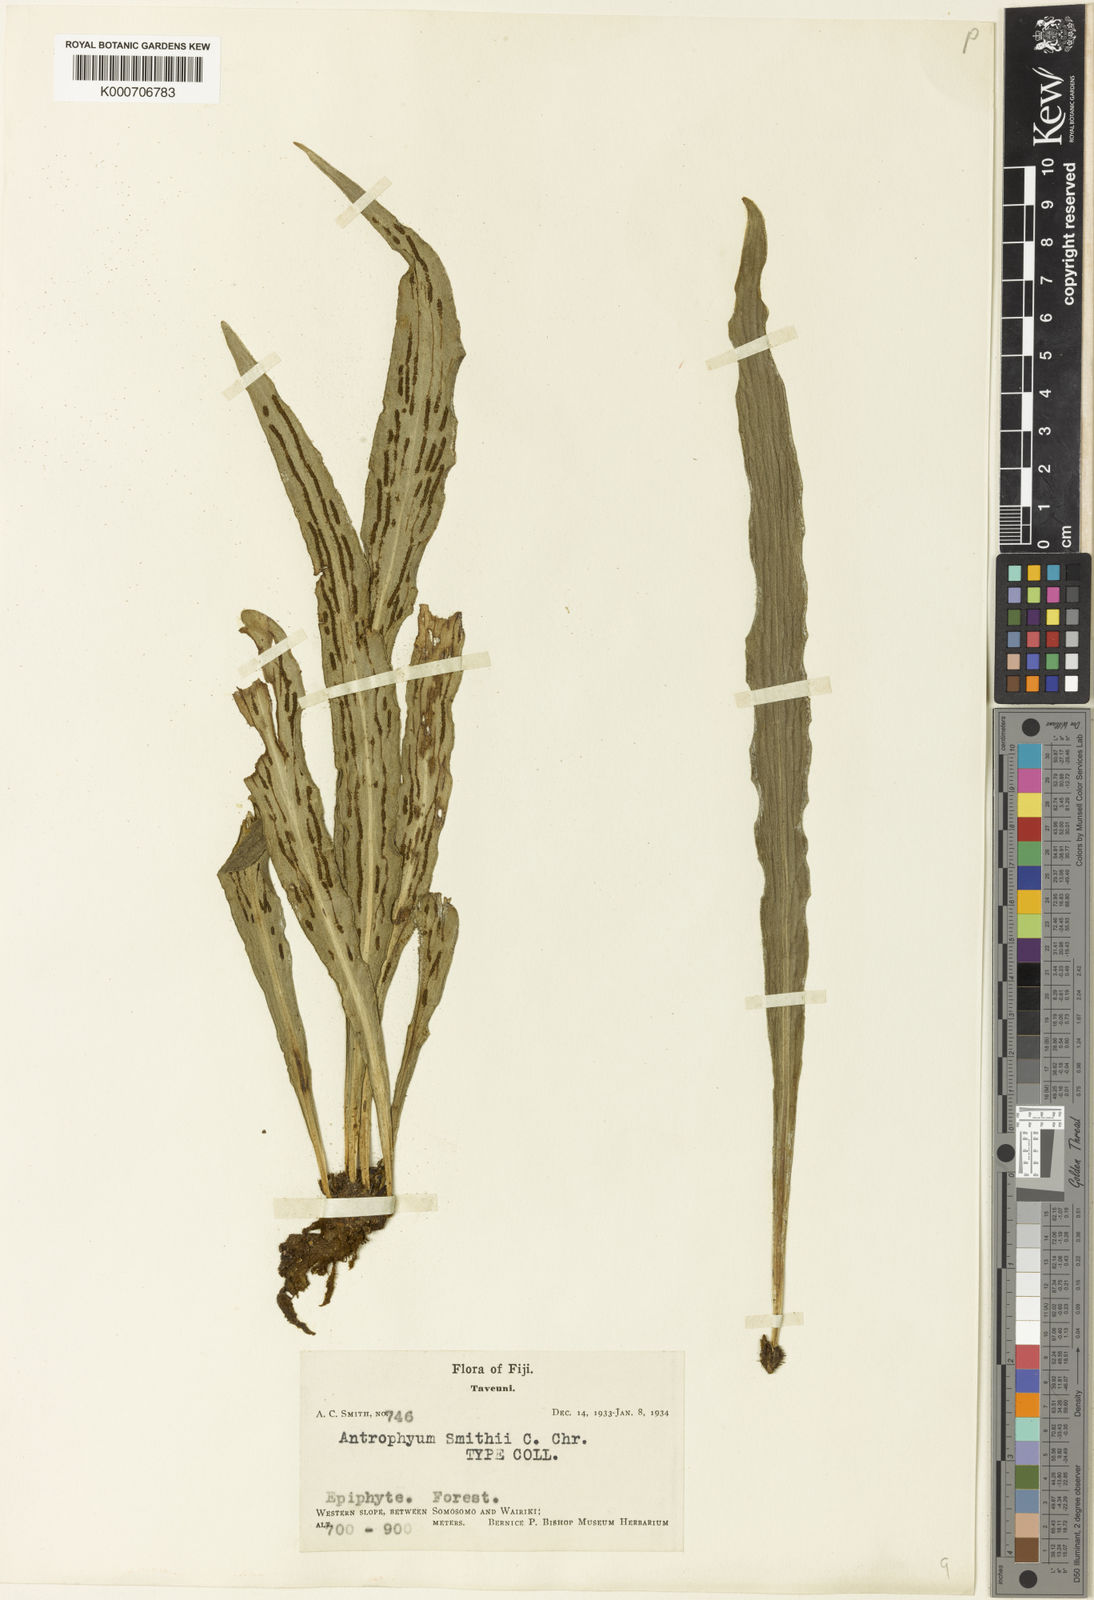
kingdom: Plantae
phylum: Tracheophyta
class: Polypodiopsida
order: Polypodiales
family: Pteridaceae
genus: Antrophyum
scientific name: Antrophyum smithii
